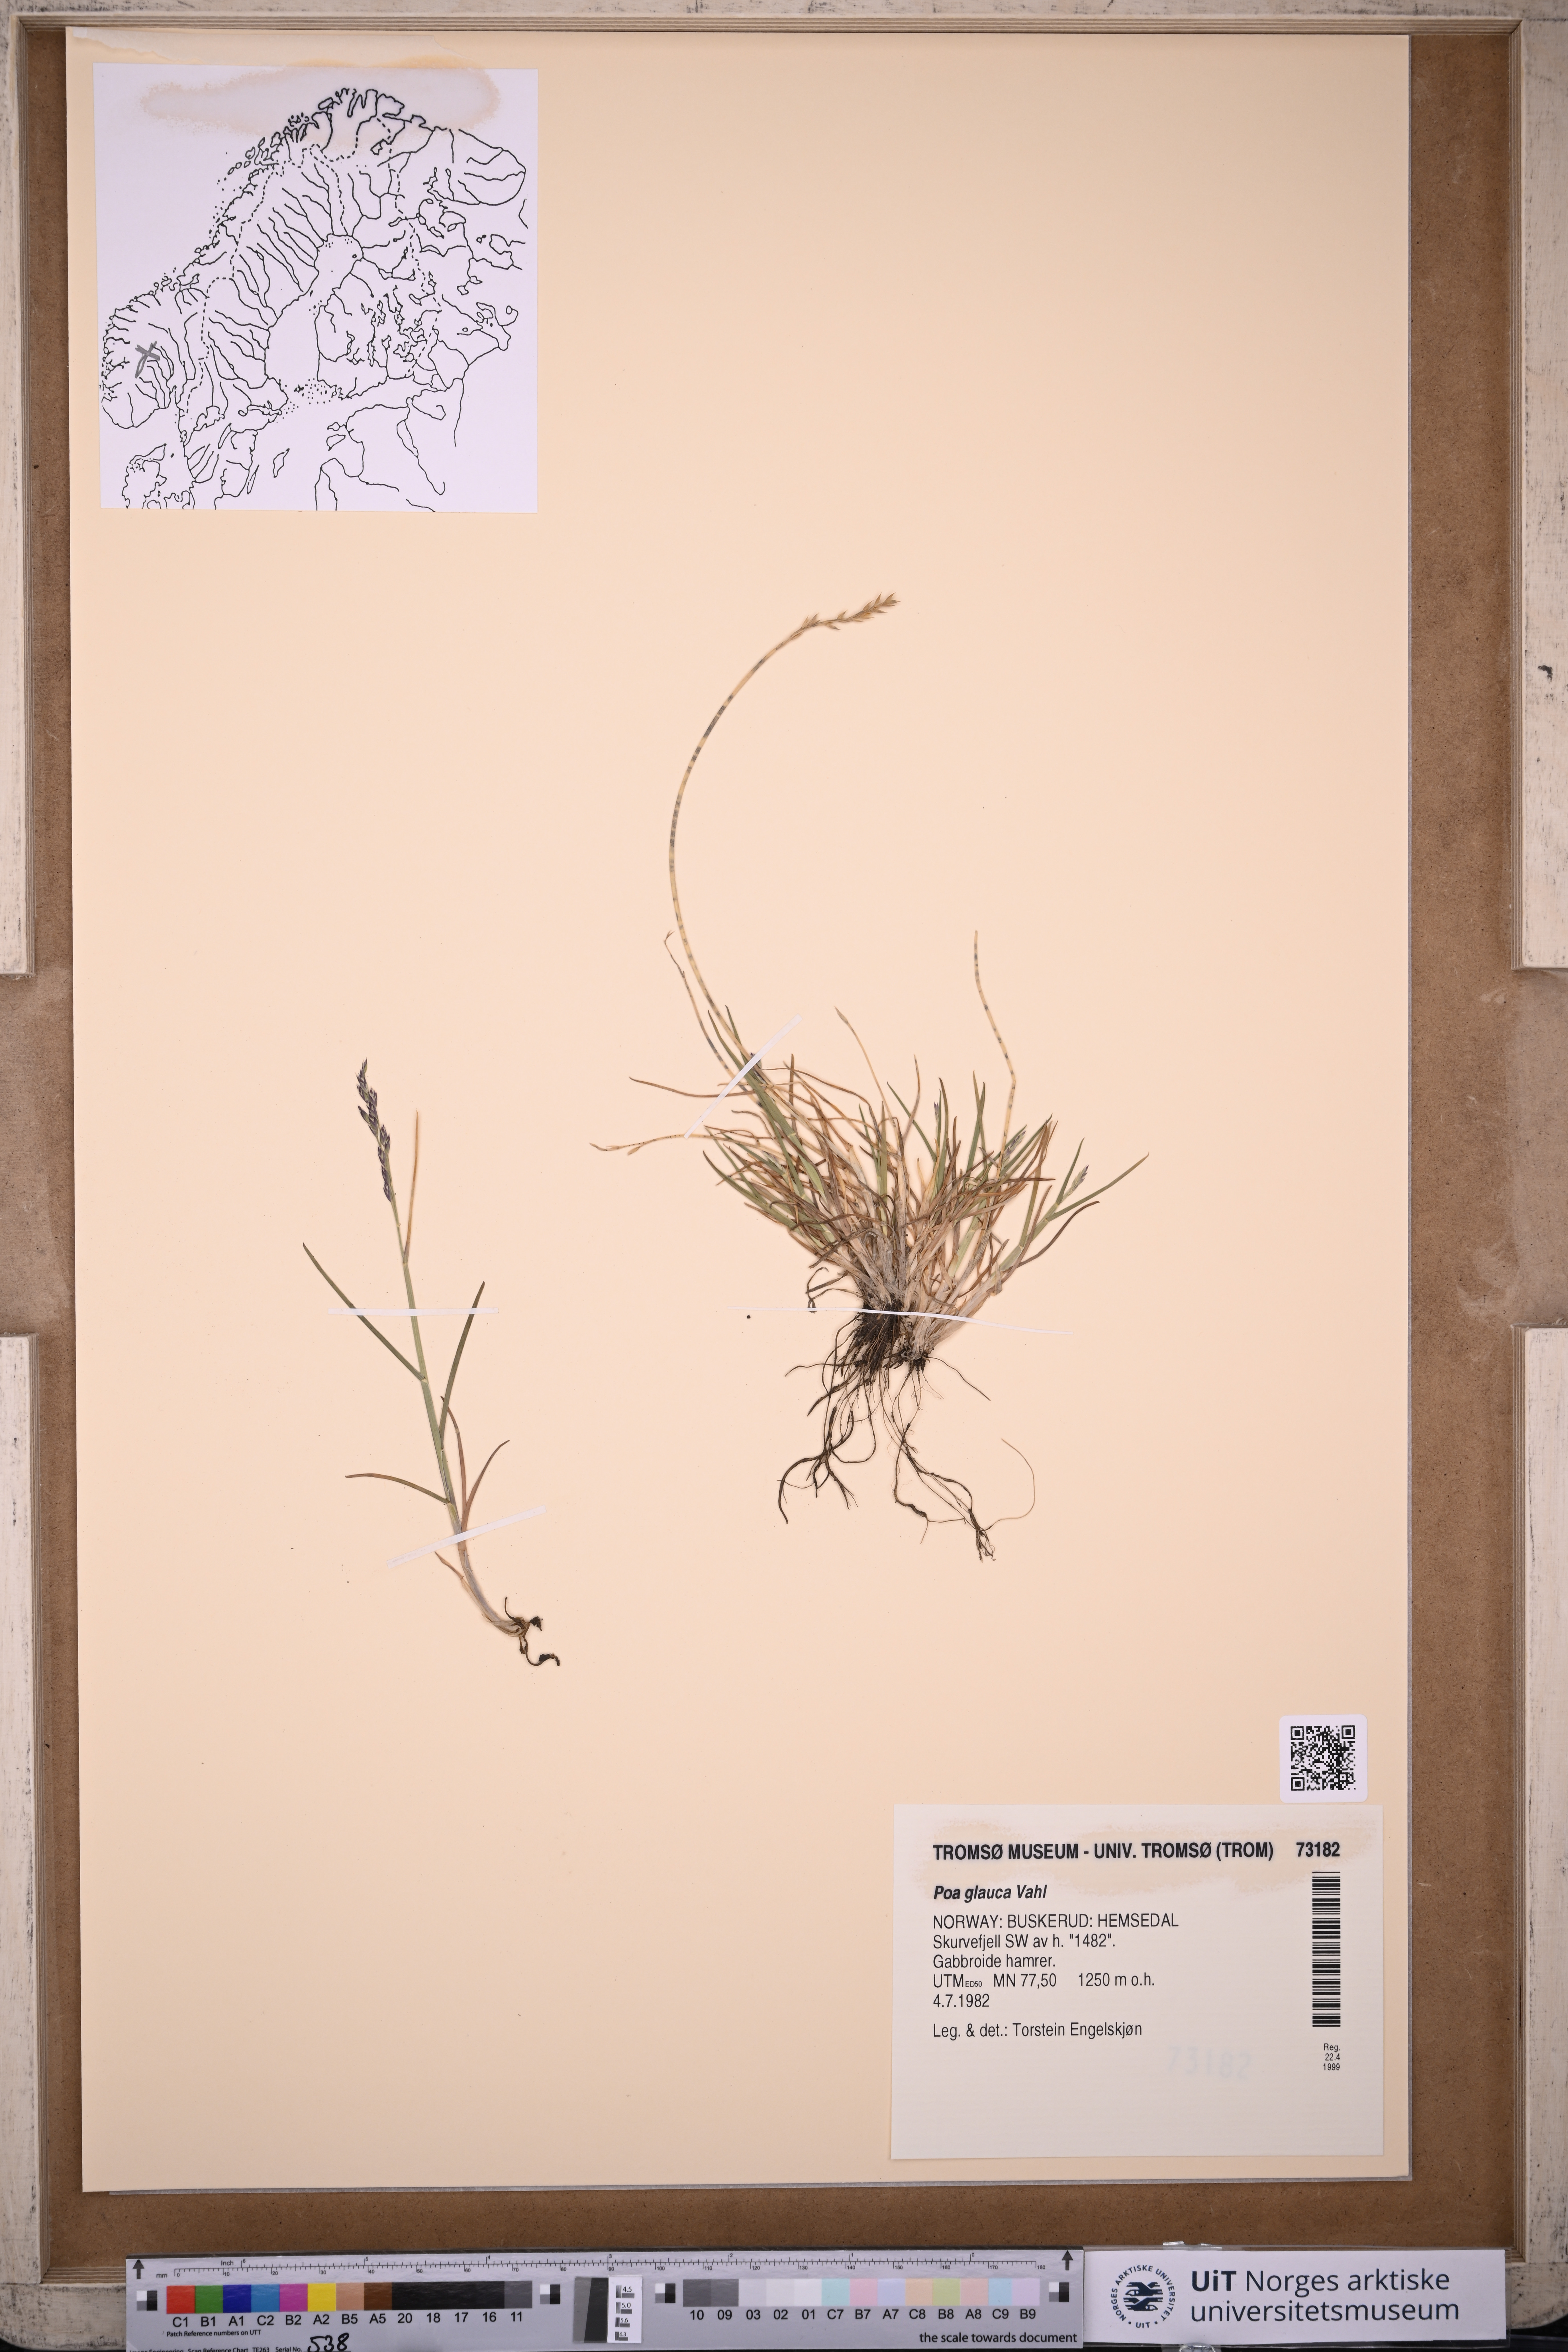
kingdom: Plantae
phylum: Tracheophyta
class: Liliopsida
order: Poales
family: Poaceae
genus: Poa
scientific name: Poa glauca
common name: Glaucous bluegrass
